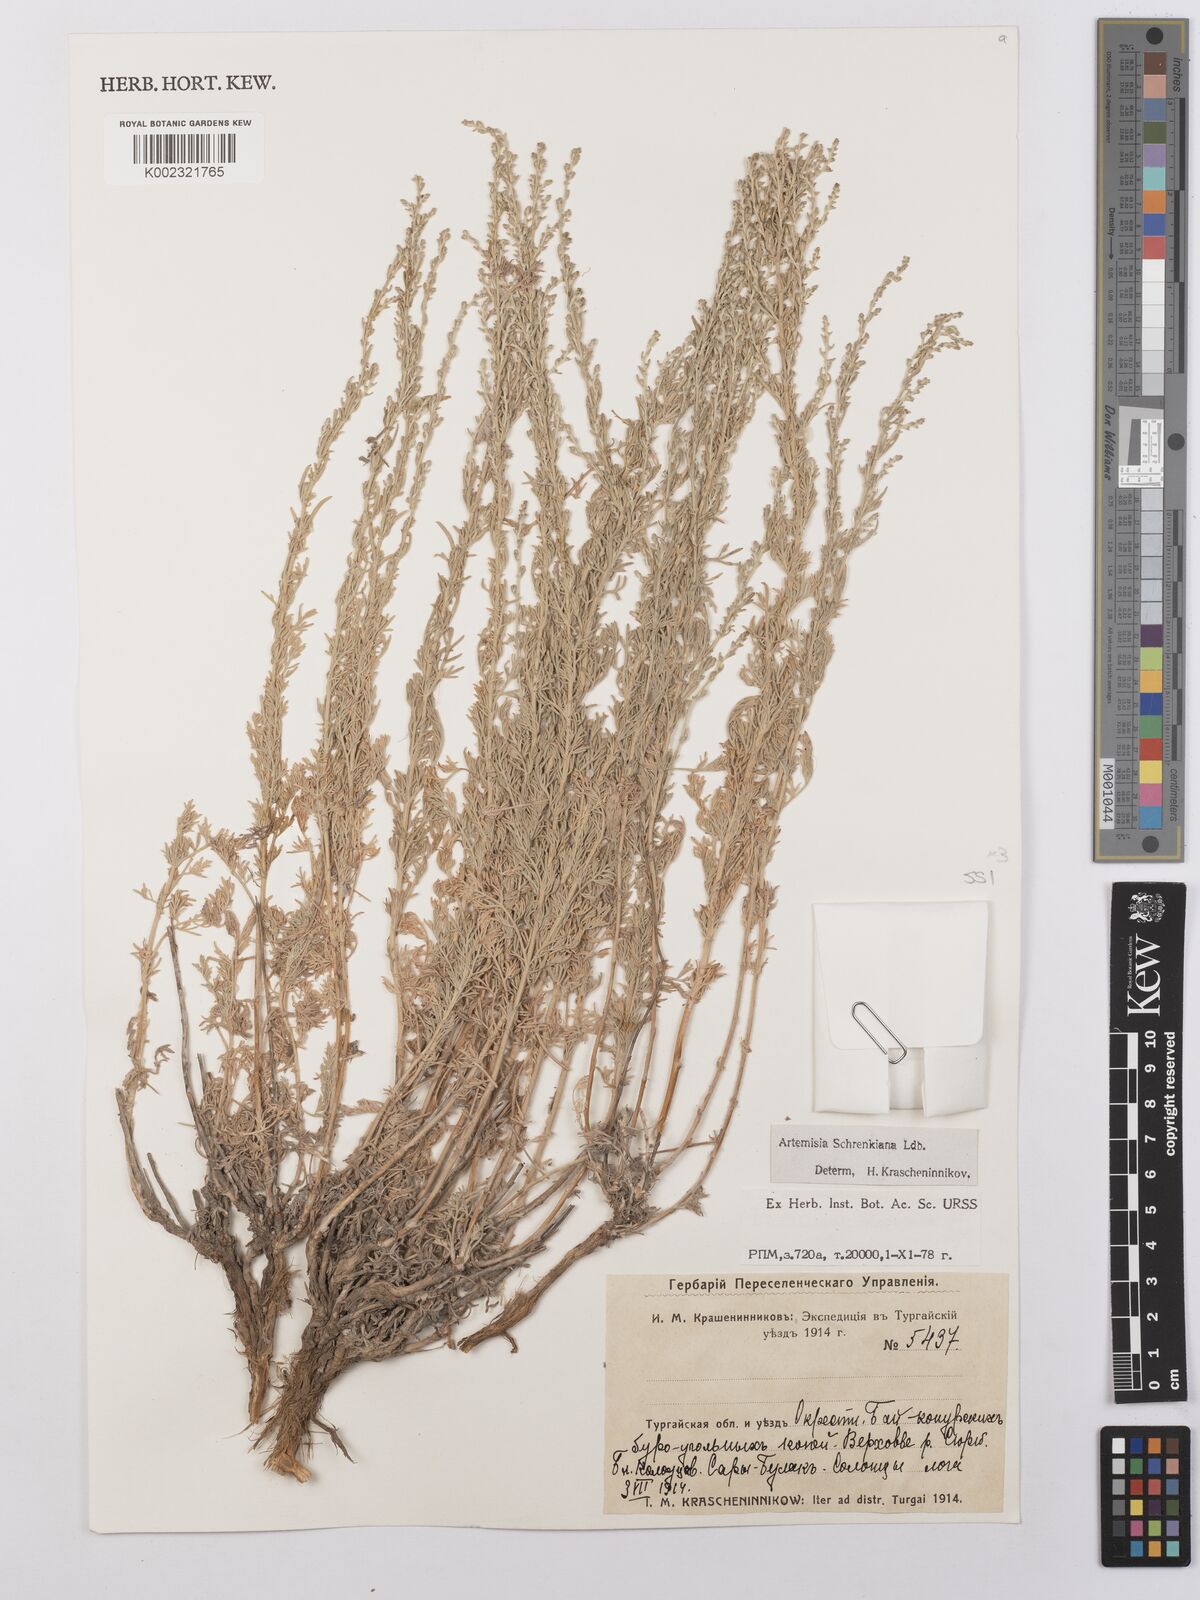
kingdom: Plantae
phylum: Tracheophyta
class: Magnoliopsida
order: Asterales
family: Asteraceae
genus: Artemisia
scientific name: Artemisia schrenkiana
